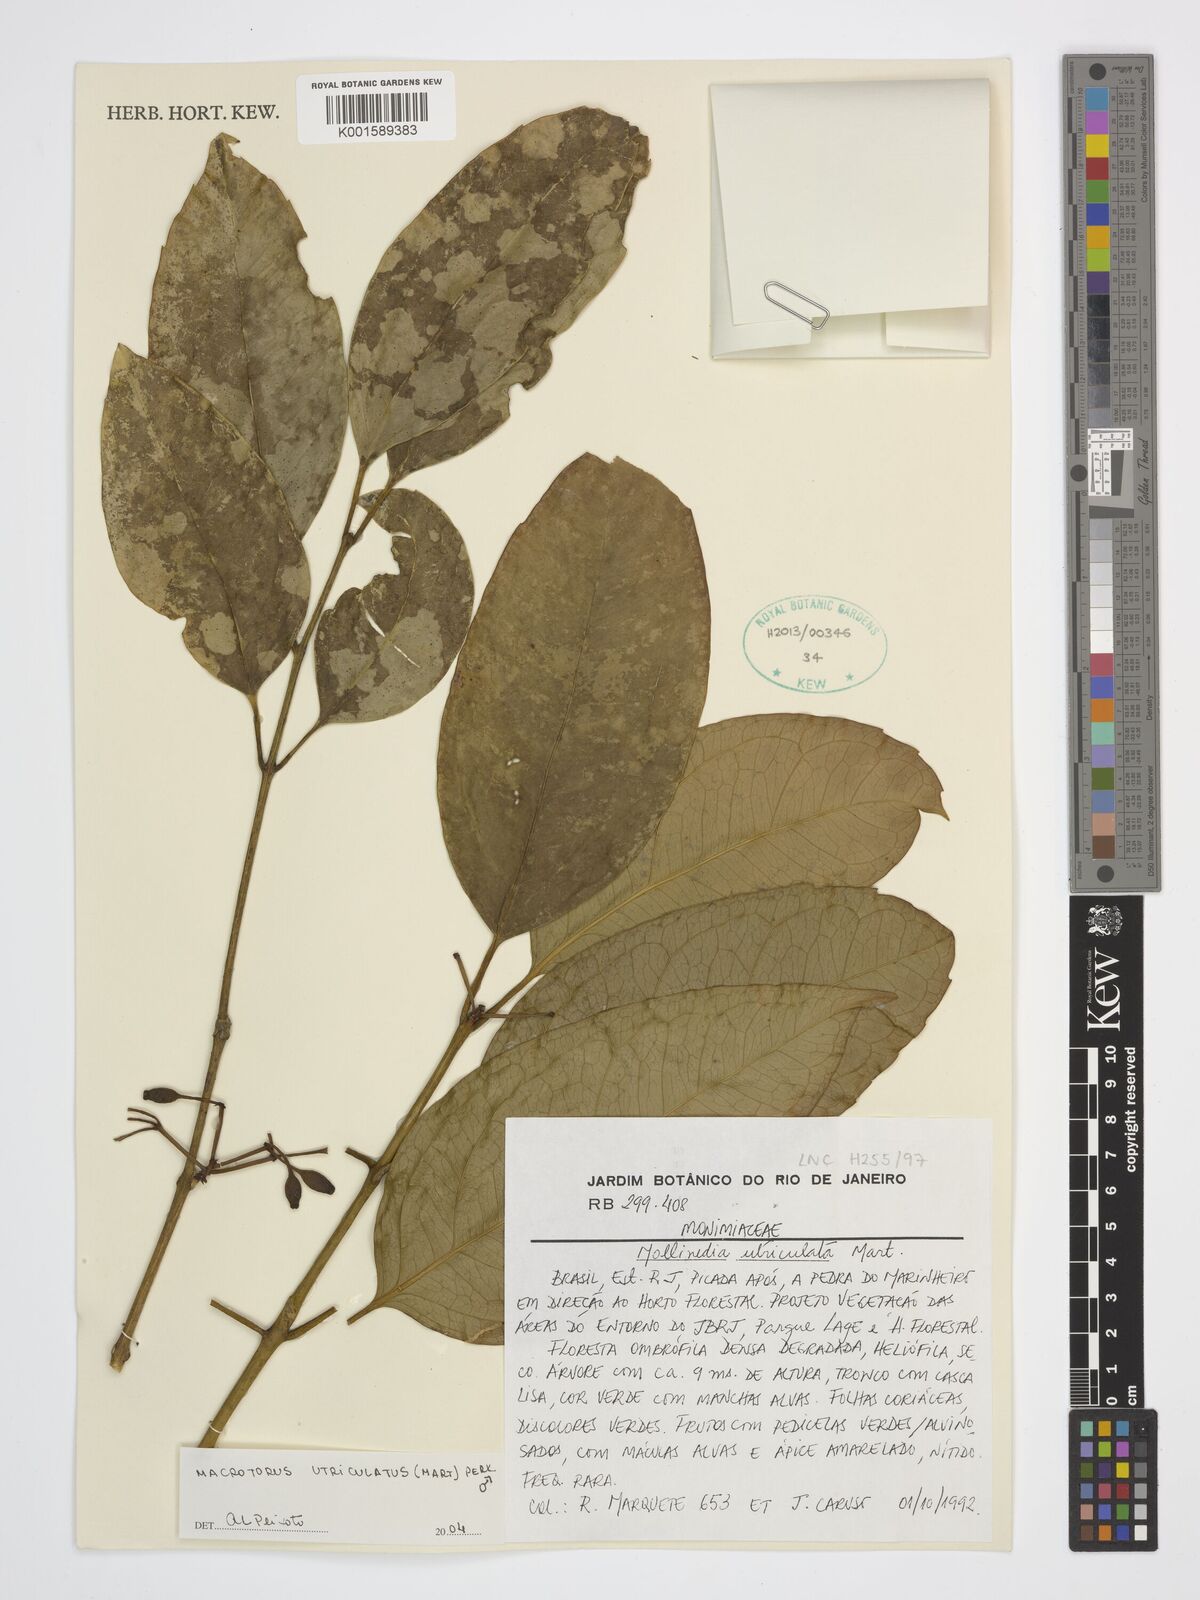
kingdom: Plantae
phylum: Tracheophyta
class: Magnoliopsida
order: Laurales
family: Monimiaceae
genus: Macrotorus
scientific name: Macrotorus utriculatus
